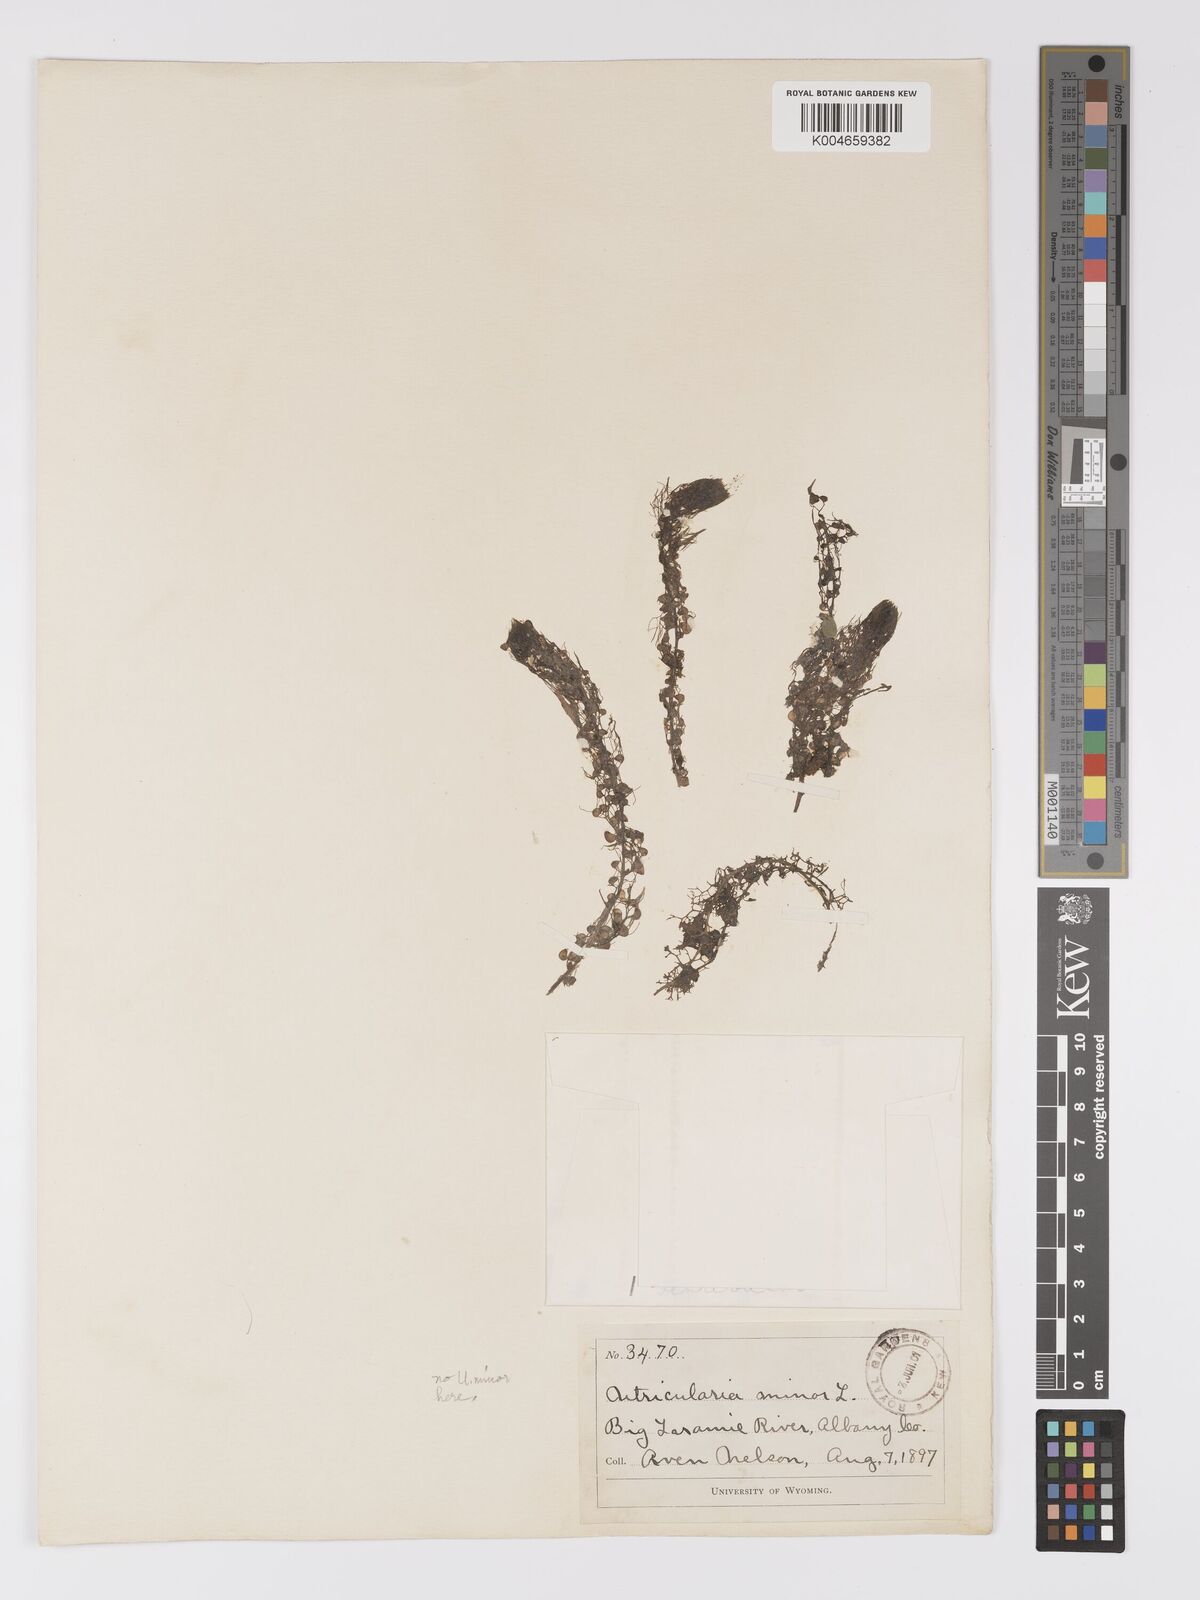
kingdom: Plantae
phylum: Tracheophyta
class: Magnoliopsida
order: Lamiales
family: Lentibulariaceae
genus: Utricularia
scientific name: Utricularia macrorhiza
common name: Common bladderwort
